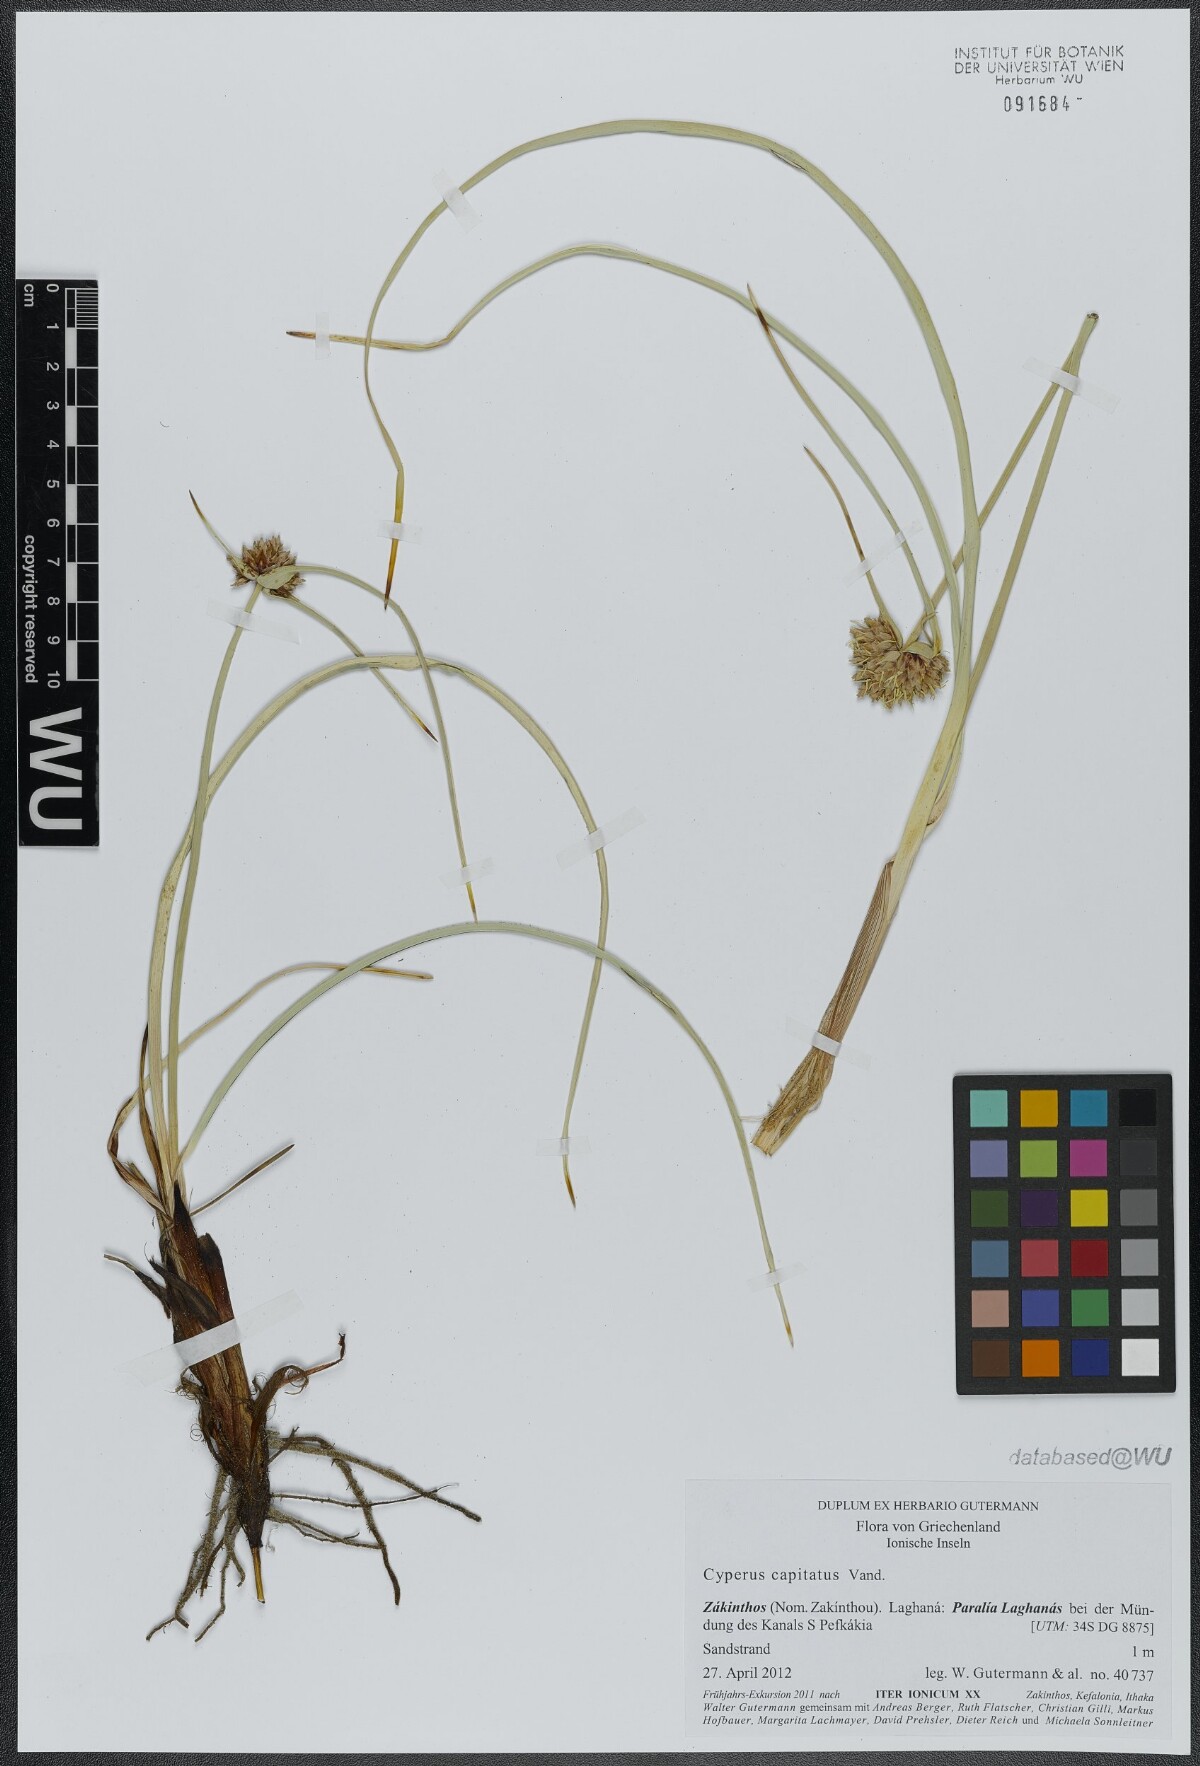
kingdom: Plantae
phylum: Tracheophyta
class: Liliopsida
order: Poales
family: Cyperaceae
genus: Cyperus
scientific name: Cyperus capitatus
